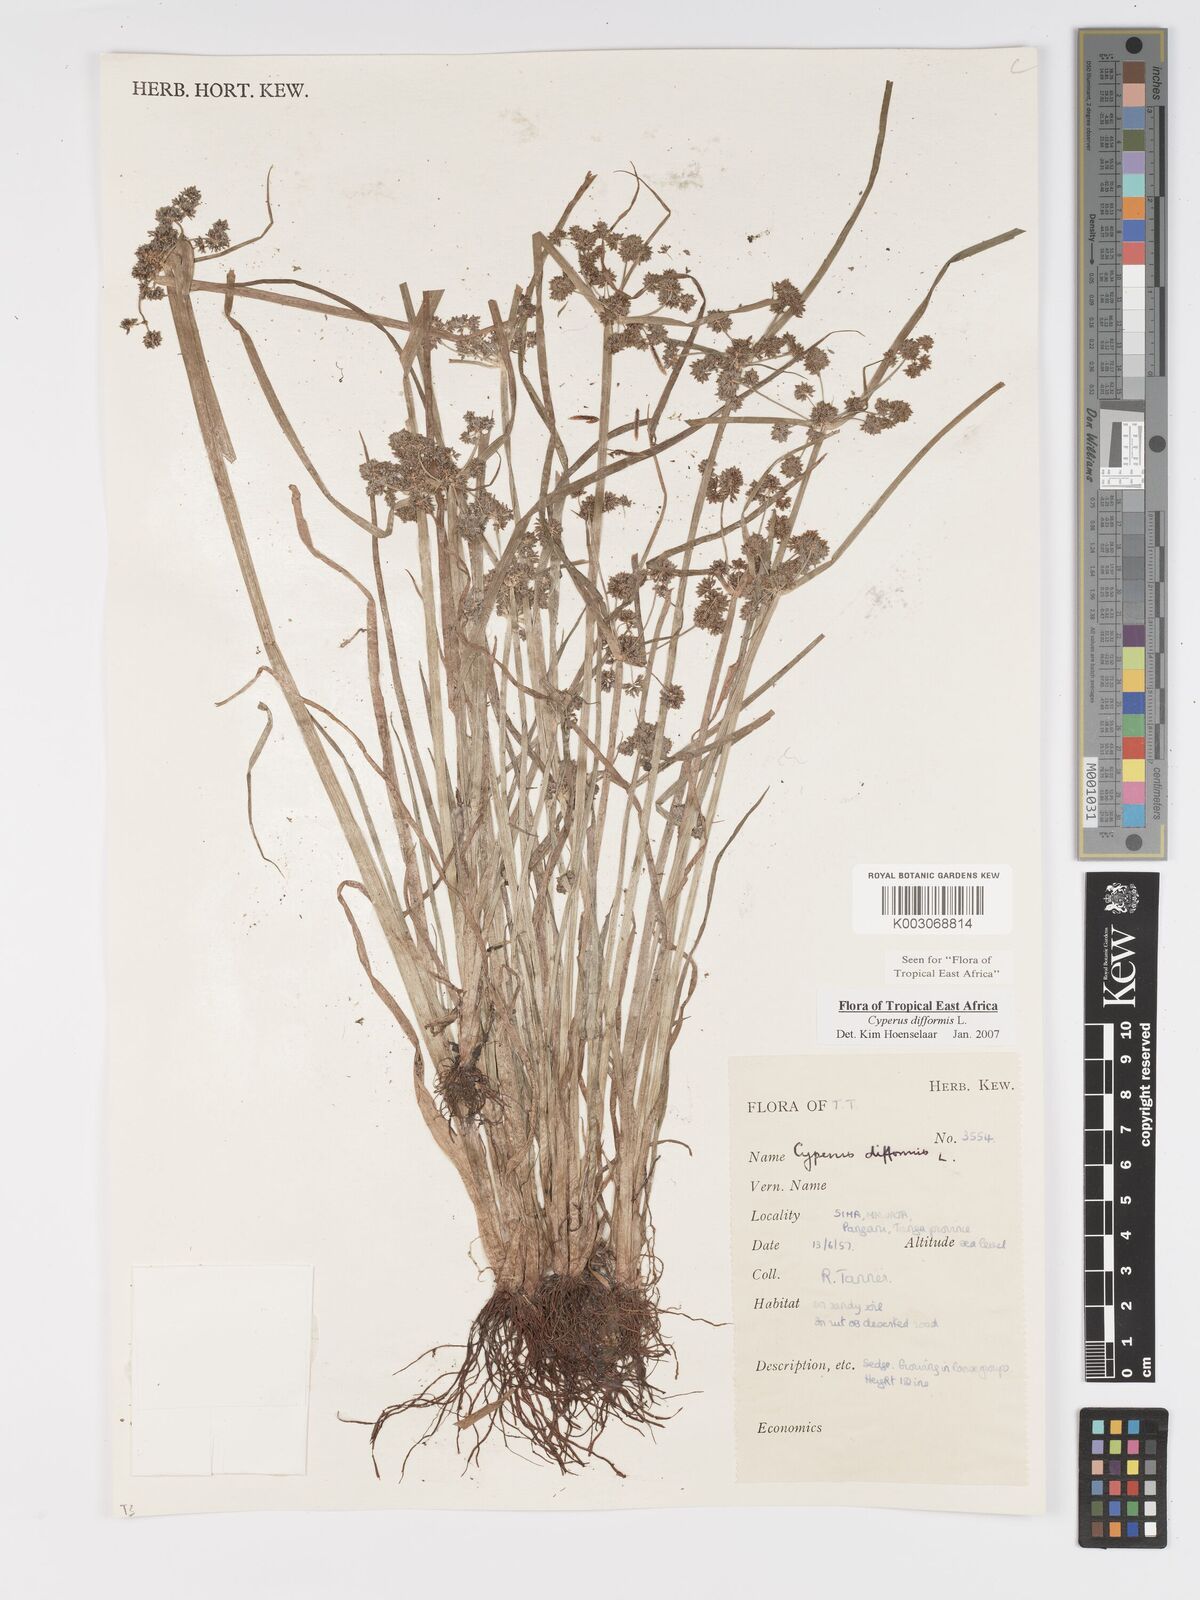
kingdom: Plantae
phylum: Tracheophyta
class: Liliopsida
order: Poales
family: Cyperaceae
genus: Cyperus
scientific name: Cyperus difformis
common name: Variable flatsedge
